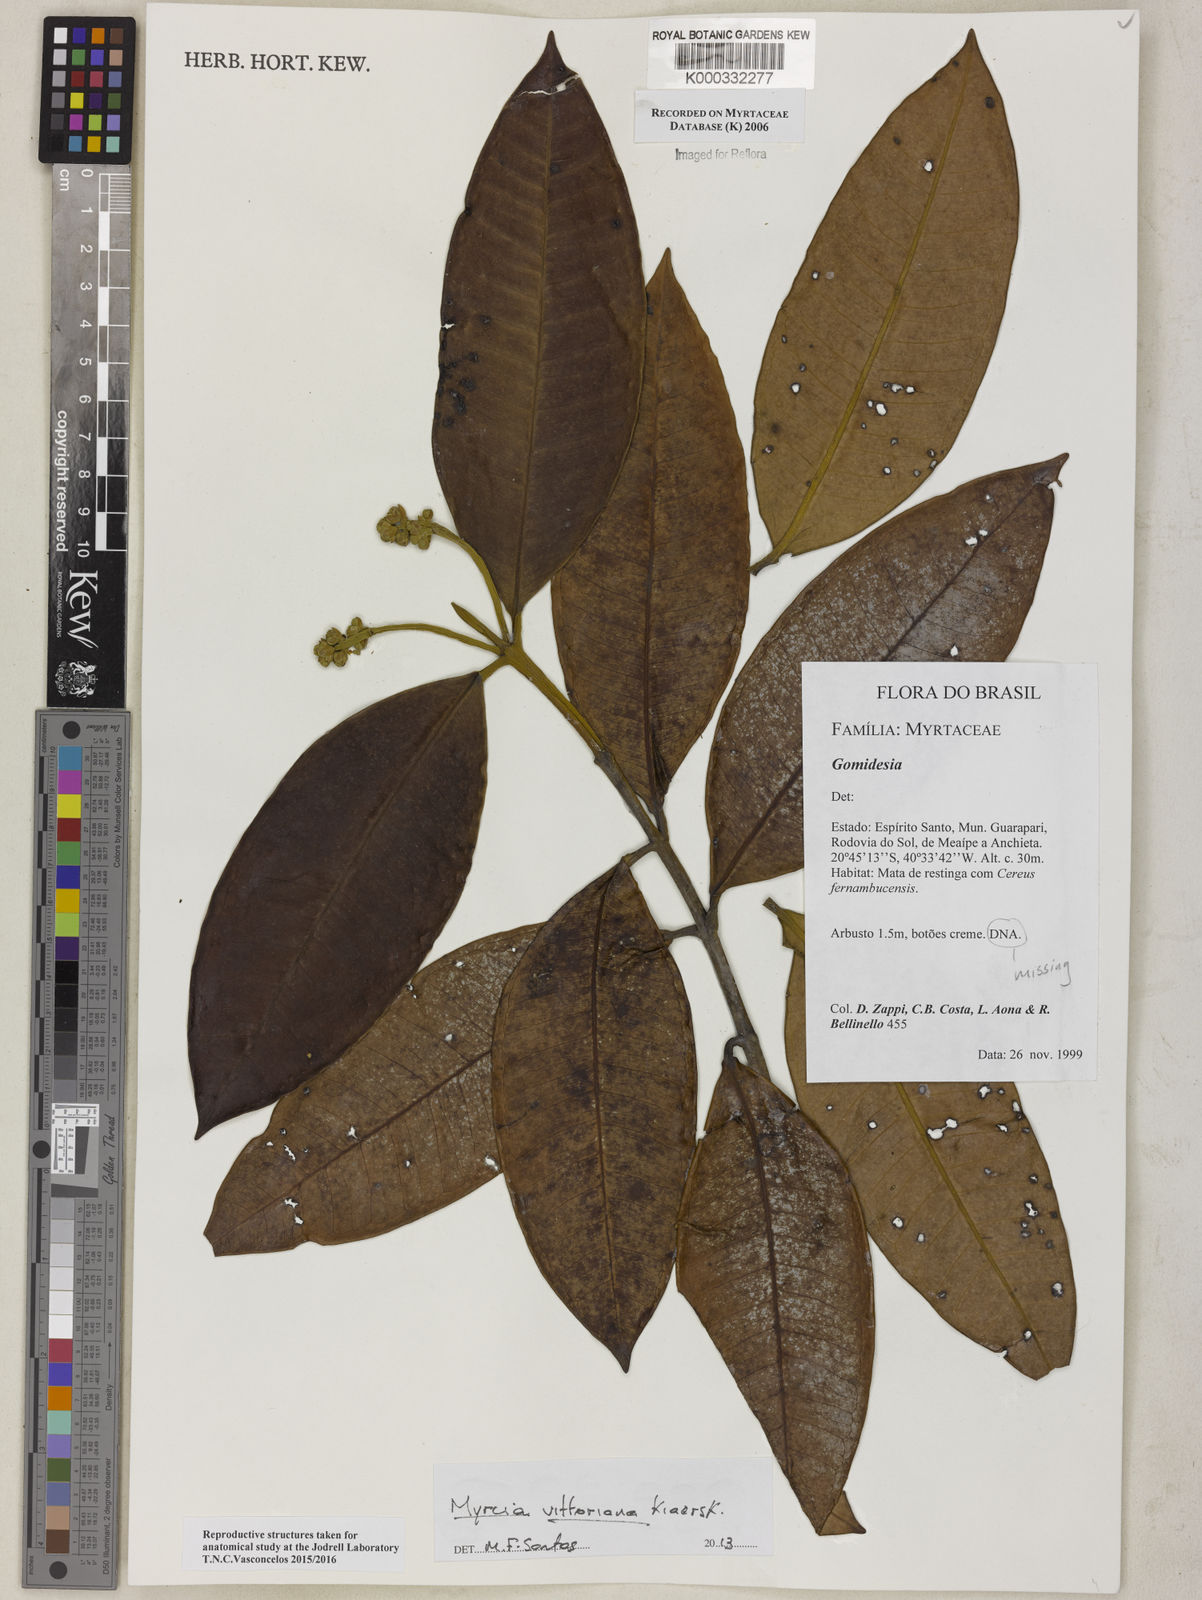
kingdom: Plantae
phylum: Tracheophyta
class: Magnoliopsida
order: Myrtales
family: Myrtaceae
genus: Myrcia
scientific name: Myrcia
